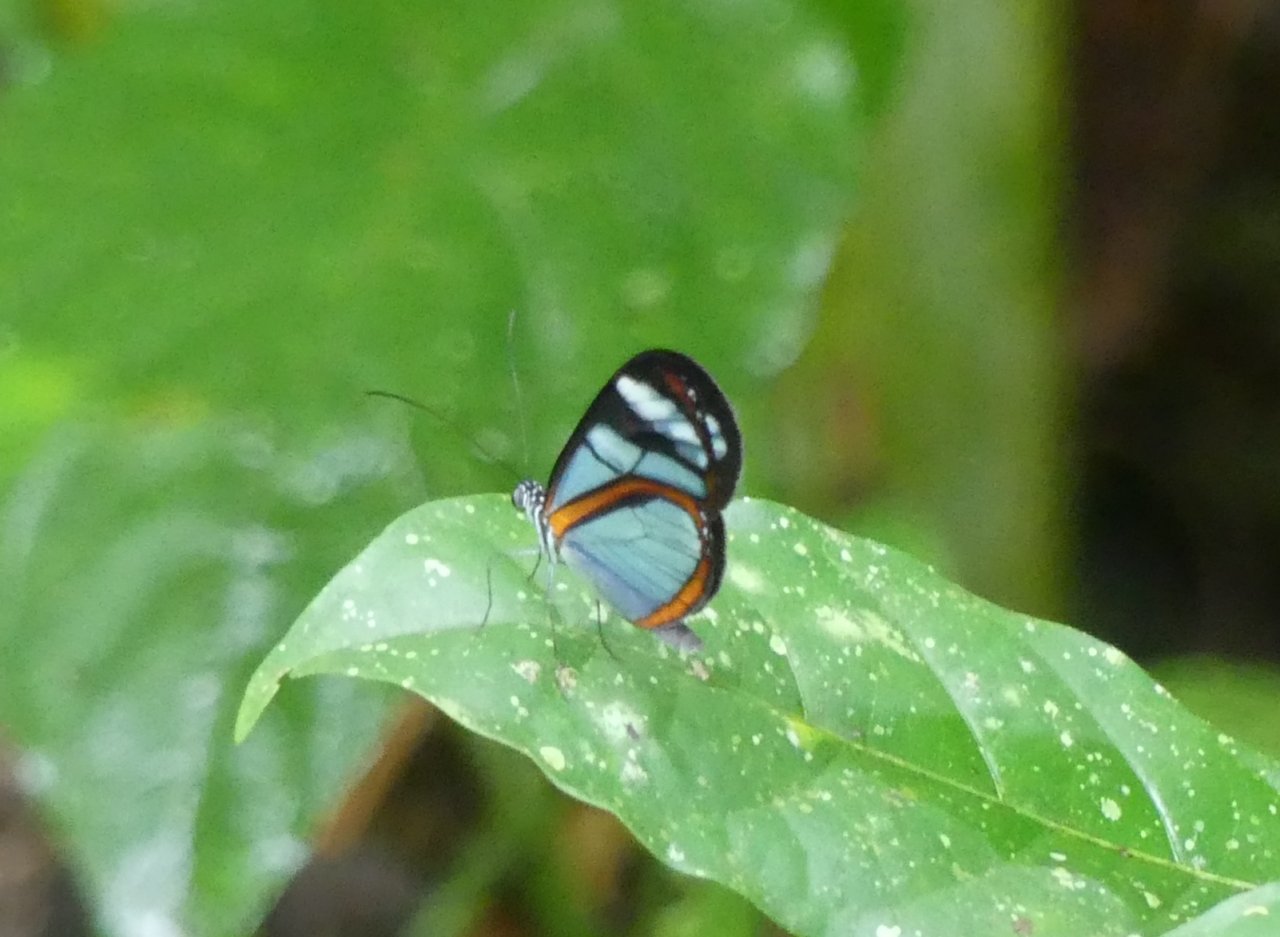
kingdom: Animalia
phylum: Arthropoda
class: Insecta
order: Lepidoptera
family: Nymphalidae
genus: Oleria
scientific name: Oleria thiemei
